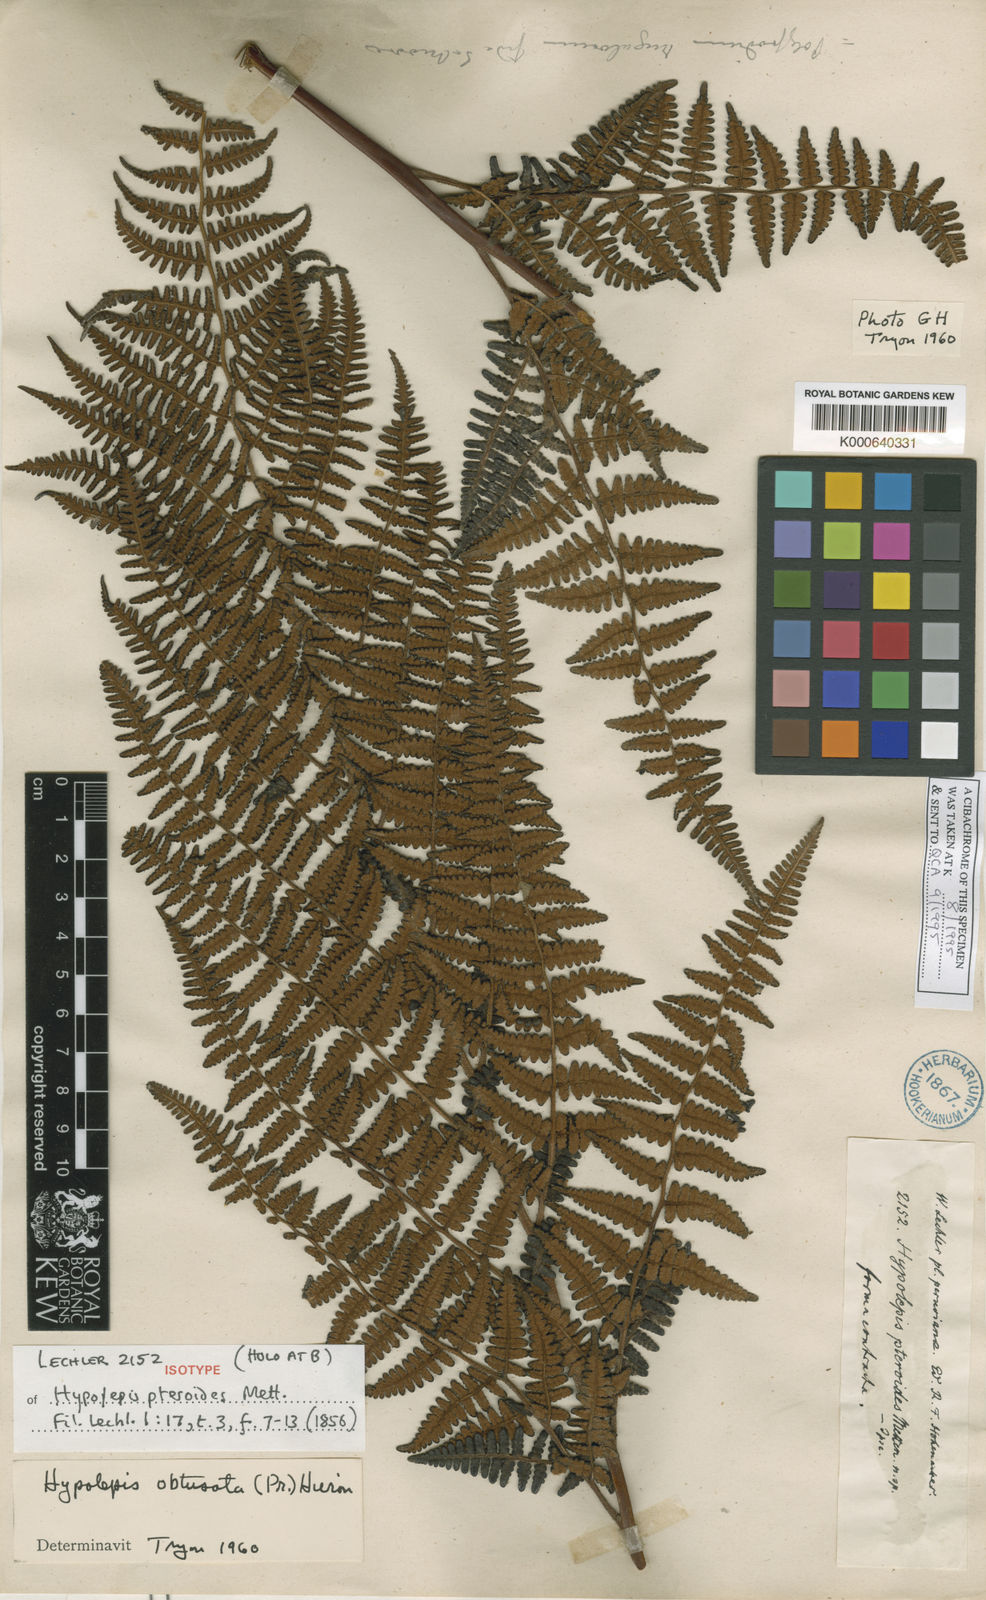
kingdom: Plantae
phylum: Tracheophyta
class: Polypodiopsida
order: Polypodiales
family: Dennstaedtiaceae
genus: Hypolepis
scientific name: Hypolepis
